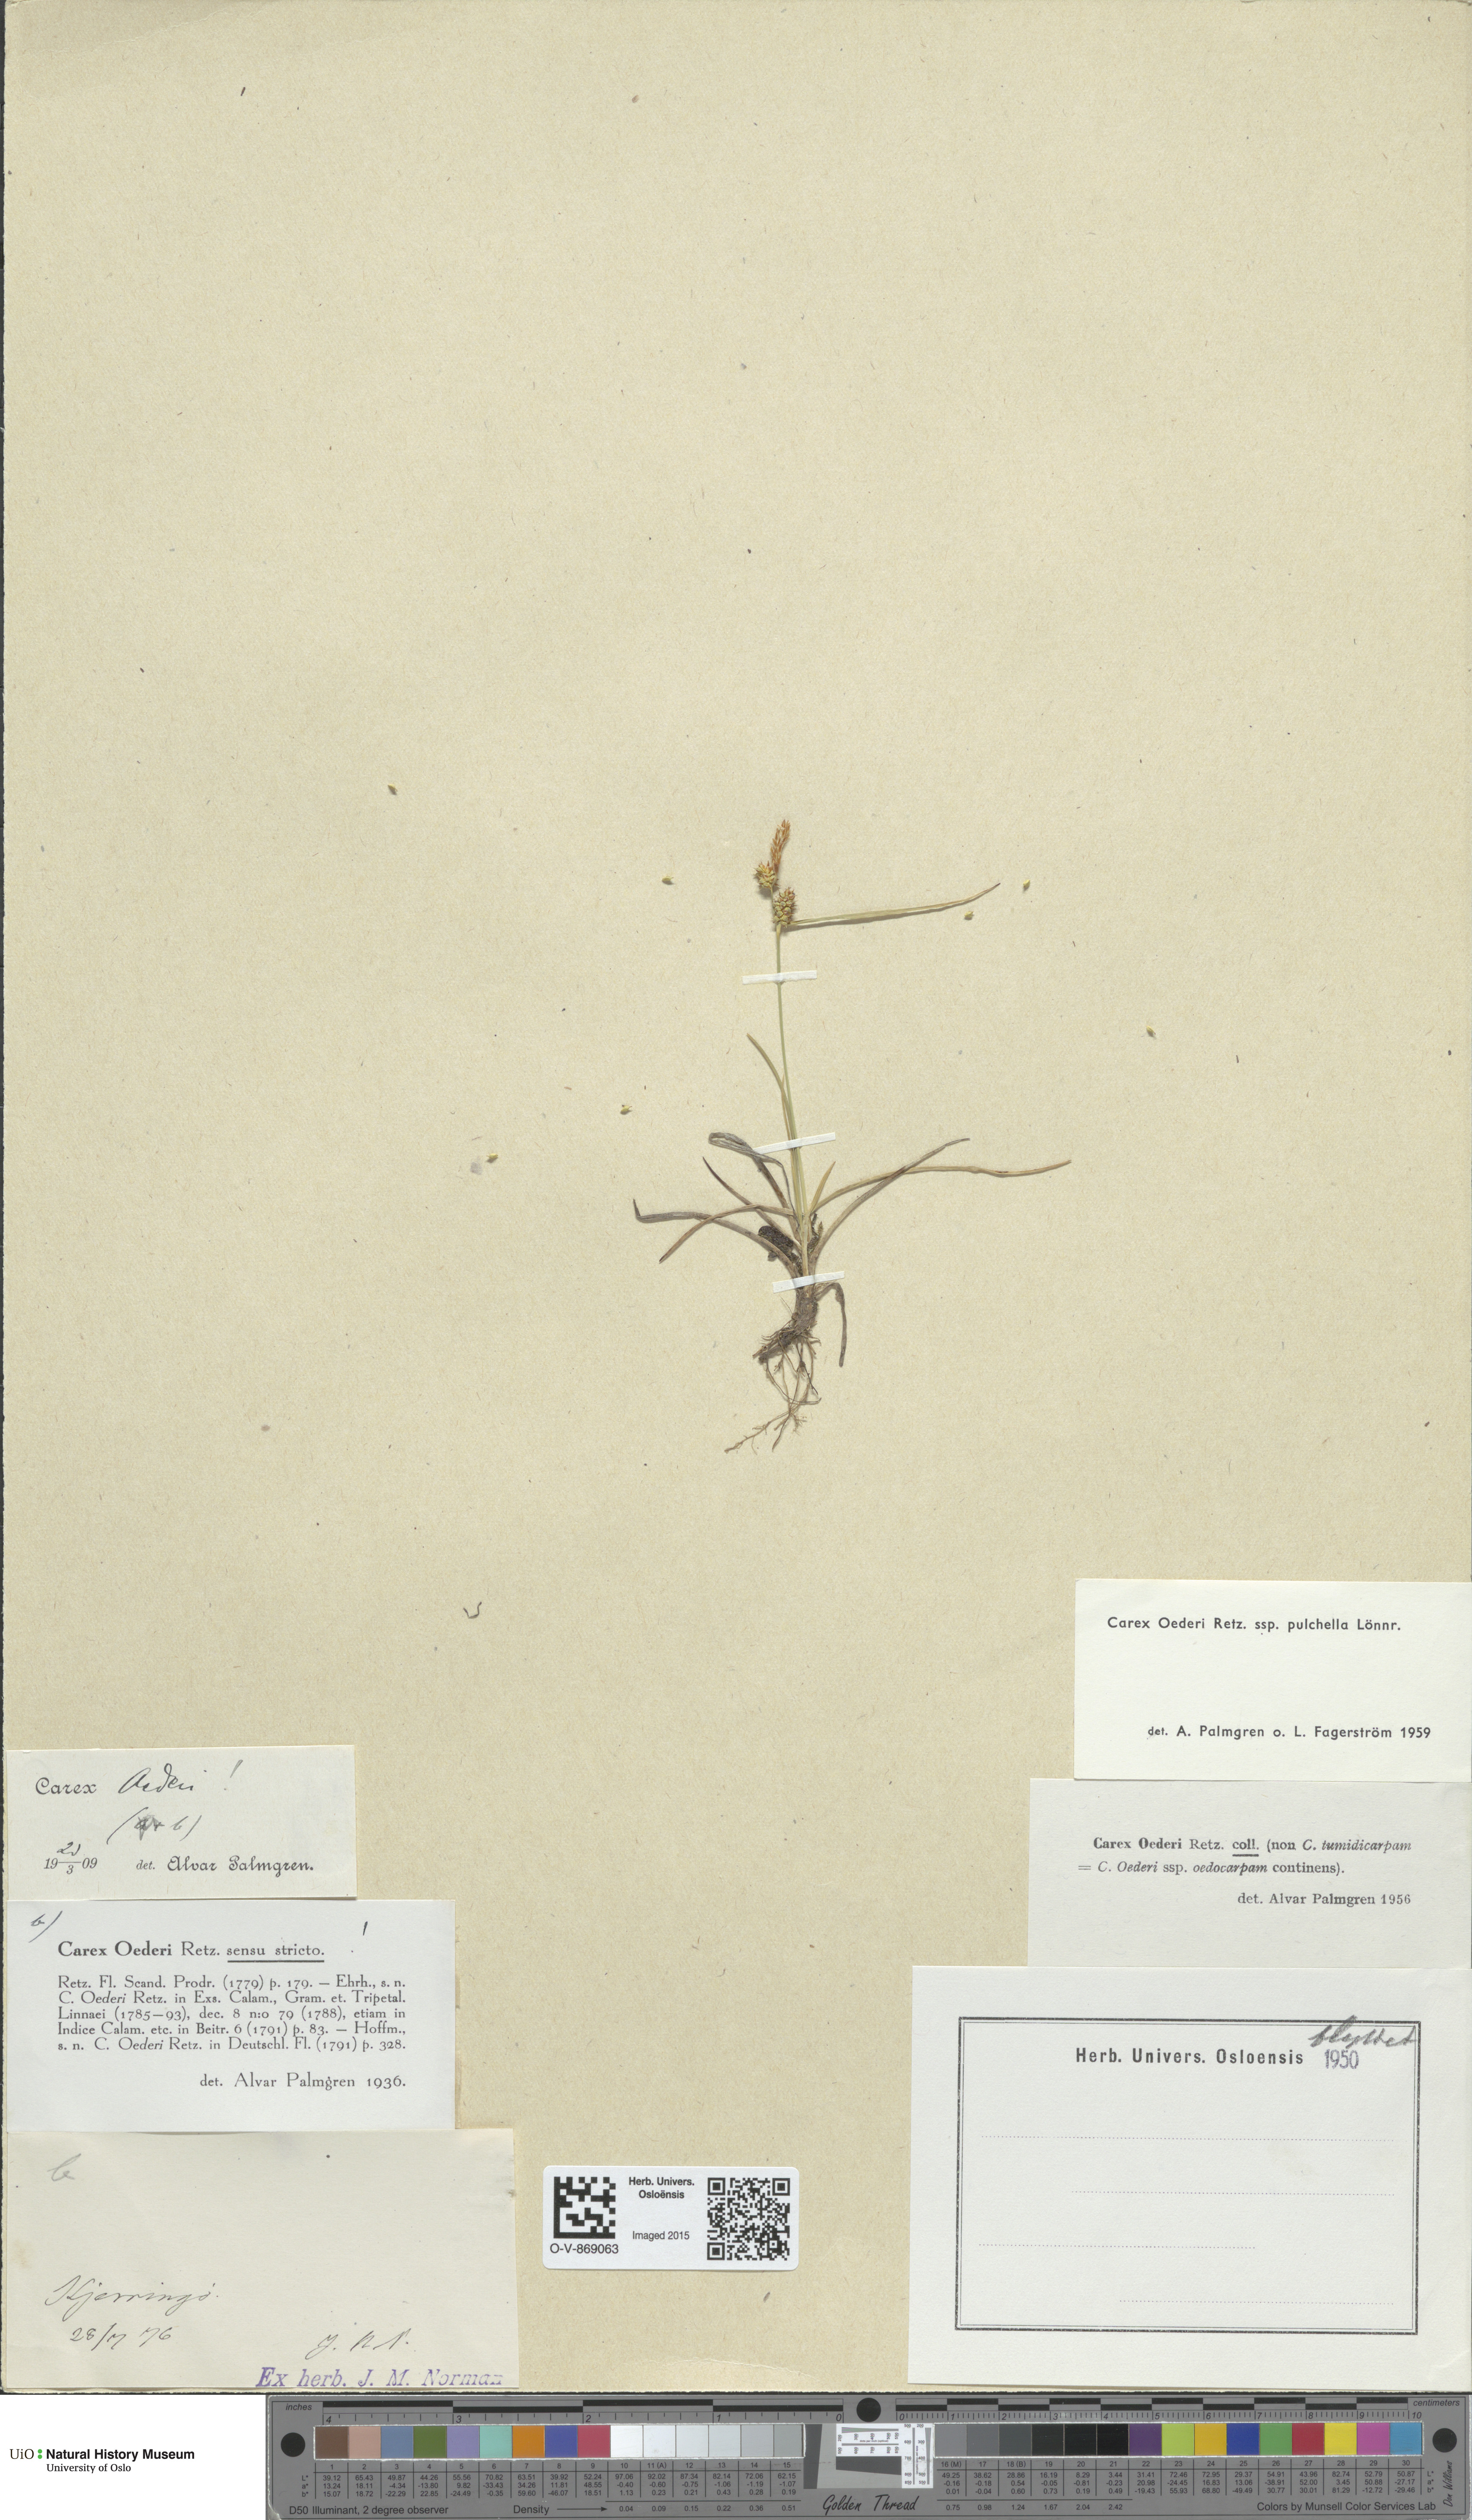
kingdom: Plantae
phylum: Tracheophyta
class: Liliopsida
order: Poales
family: Cyperaceae
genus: Carex
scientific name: Carex oederi
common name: Common & small-fruited yellow-sedge
